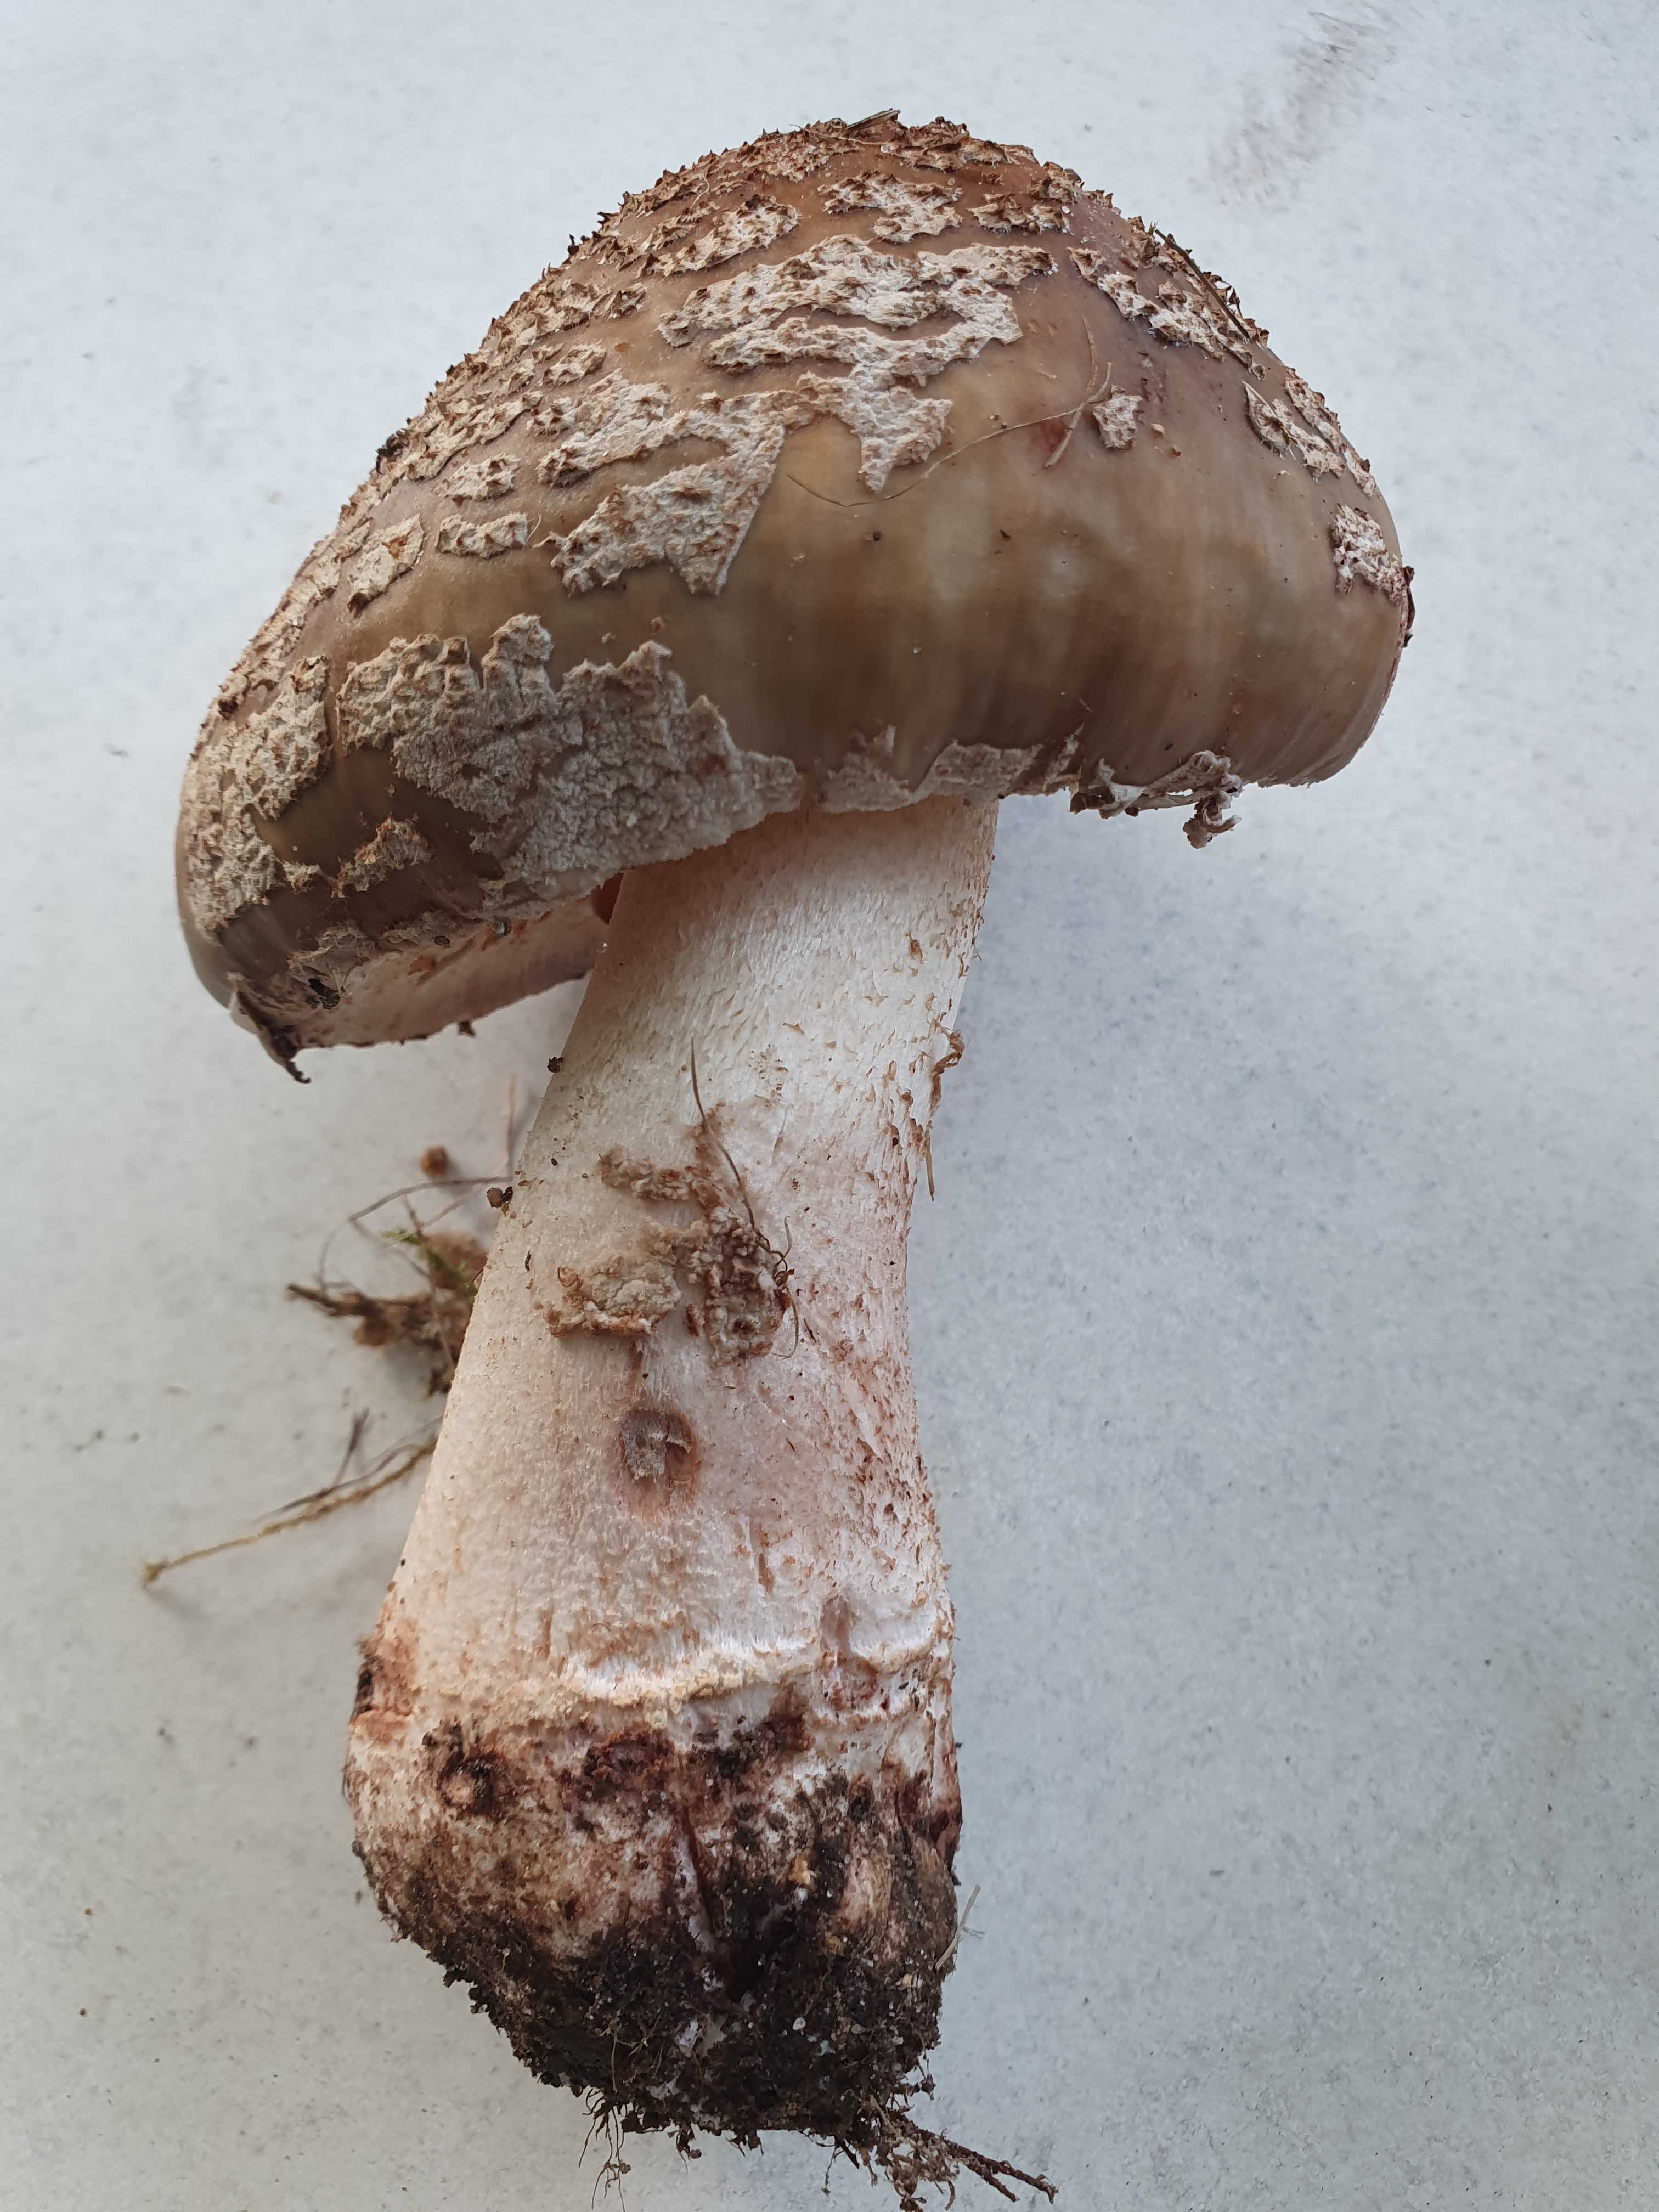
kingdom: Fungi
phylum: Basidiomycota
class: Agaricomycetes
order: Agaricales
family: Amanitaceae
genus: Amanita
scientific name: Amanita rubescens
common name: rødmende fluesvamp
